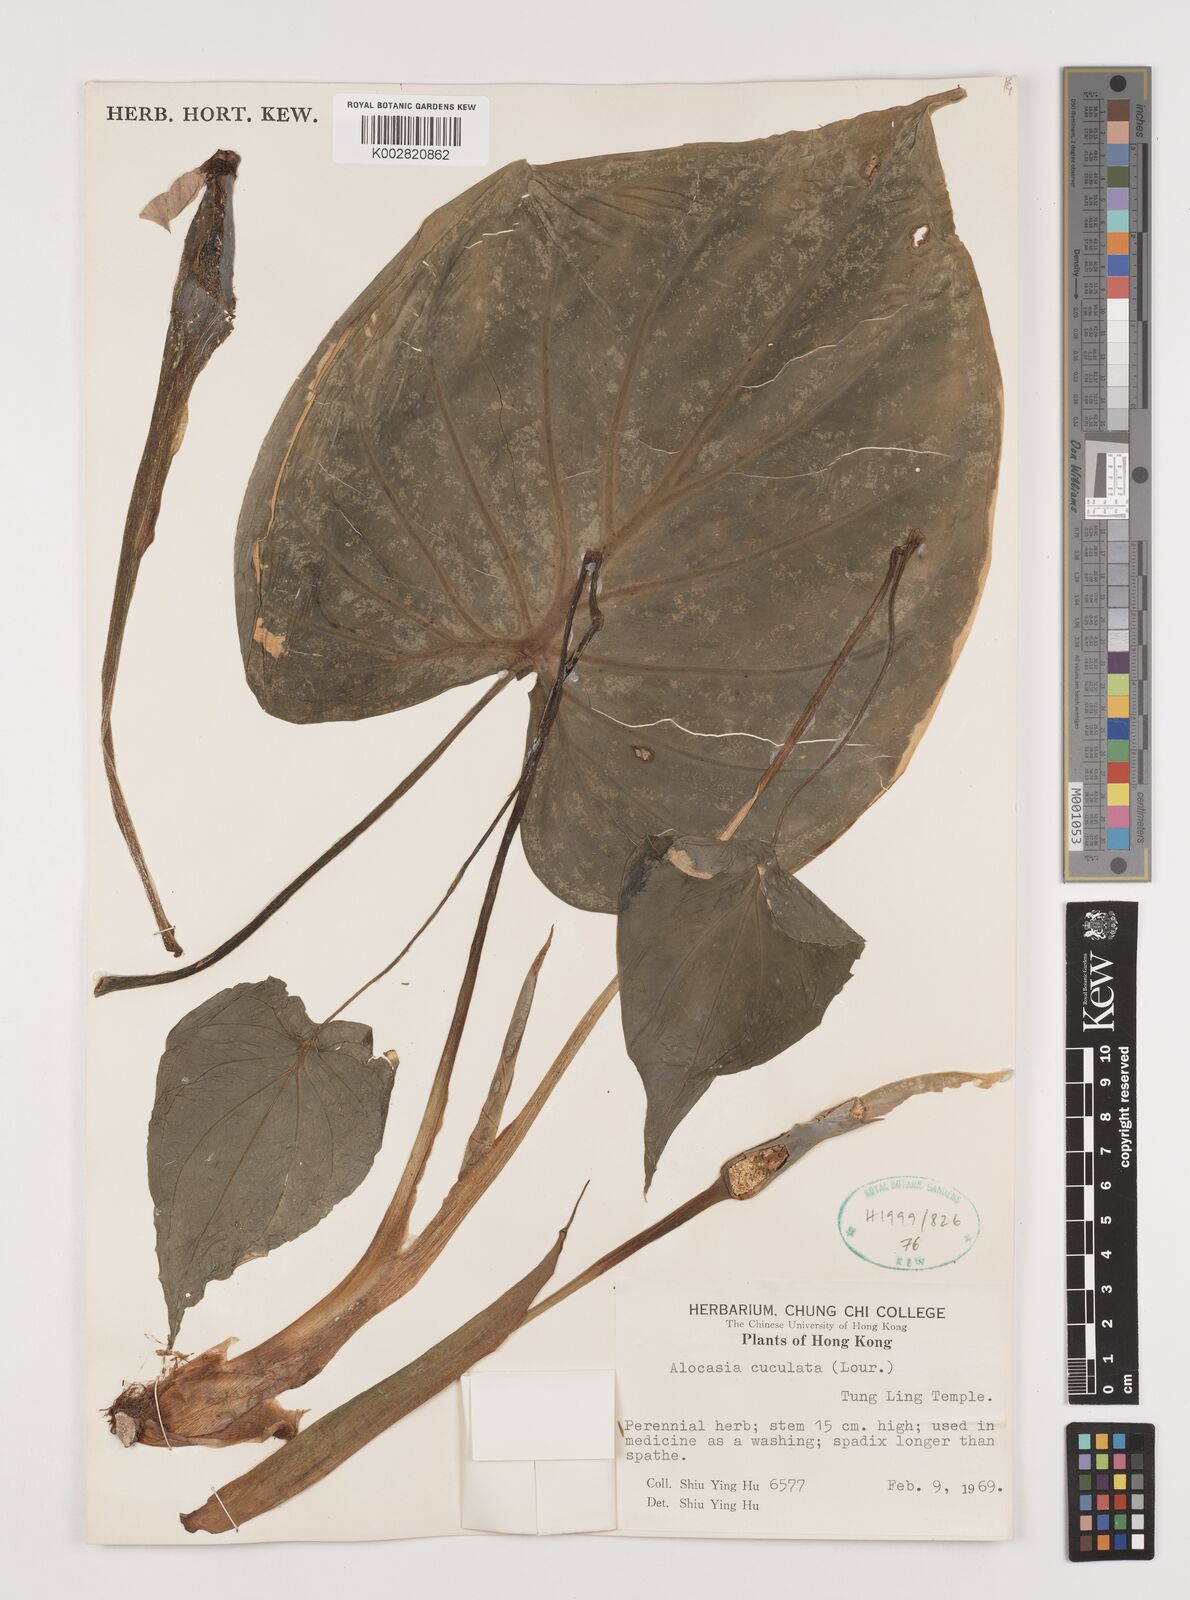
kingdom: Plantae
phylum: Tracheophyta
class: Liliopsida
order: Alismatales
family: Araceae
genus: Alocasia
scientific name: Alocasia cucullata
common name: Buddha's hand
